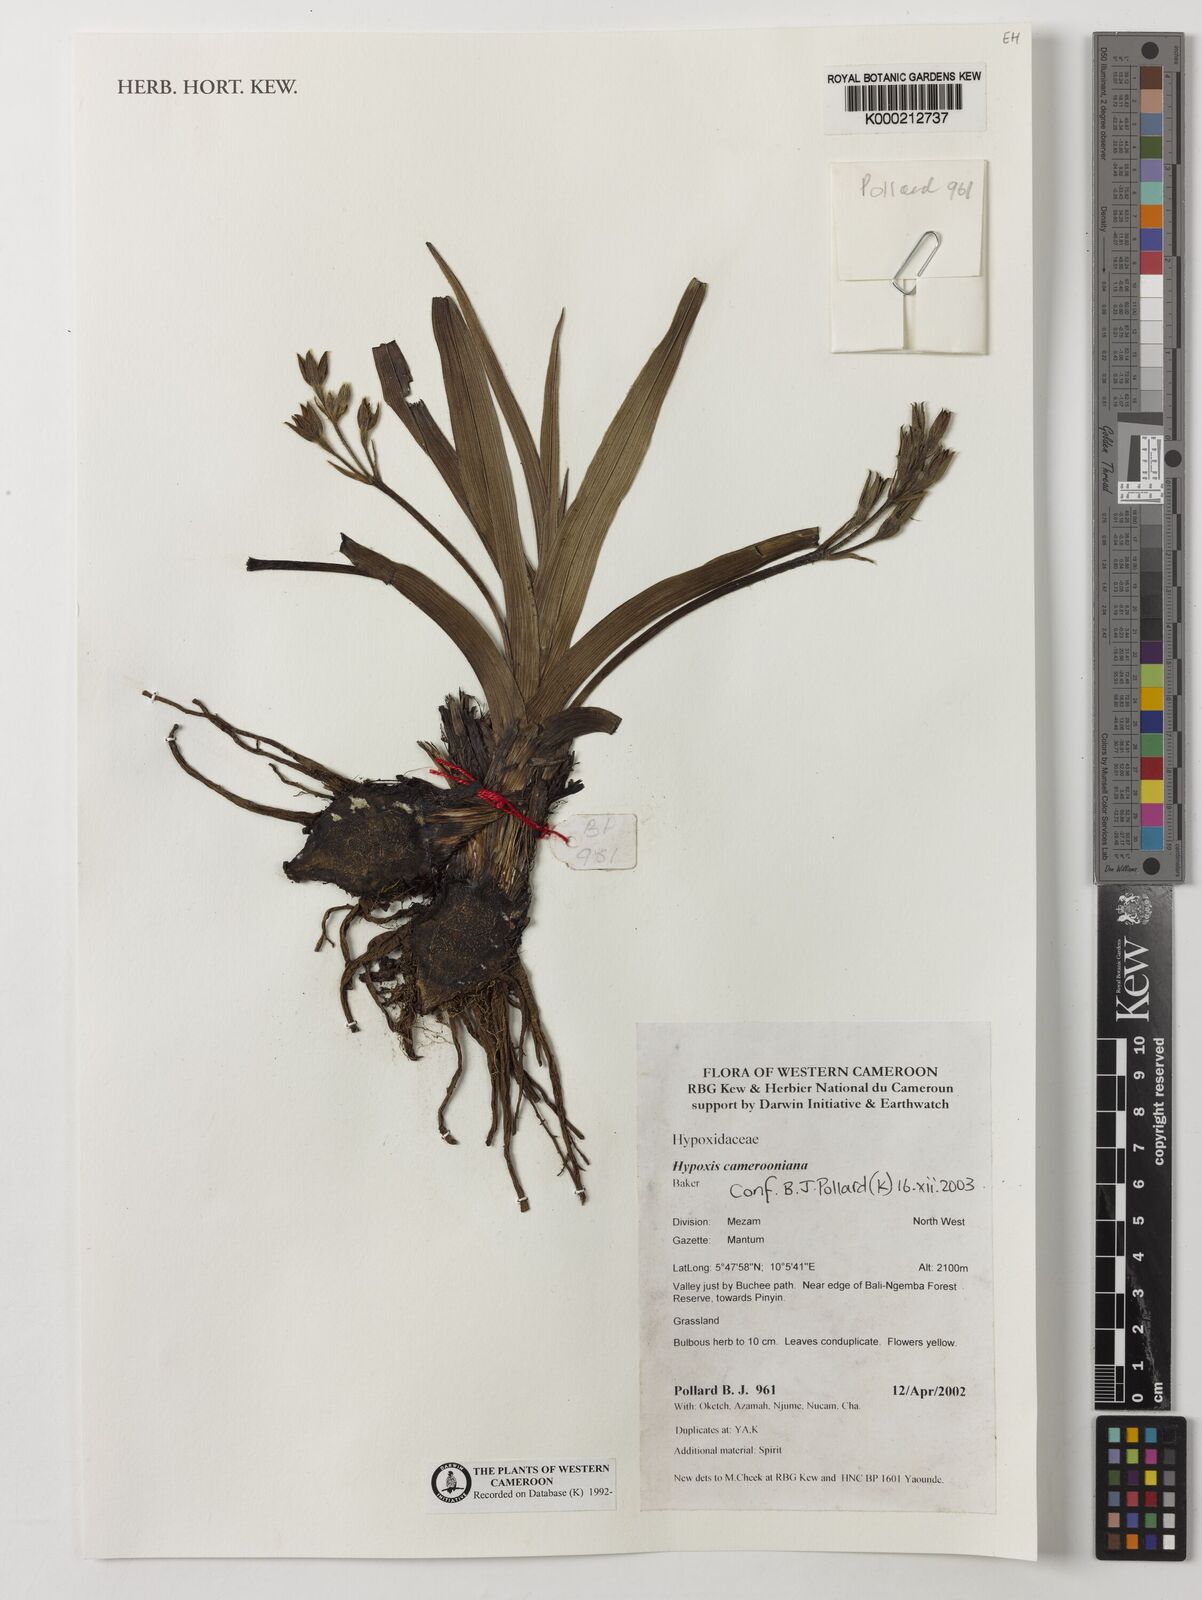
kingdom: Plantae
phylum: Tracheophyta
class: Liliopsida
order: Asparagales
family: Hypoxidaceae
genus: Hypoxis
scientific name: Hypoxis camerooniana
